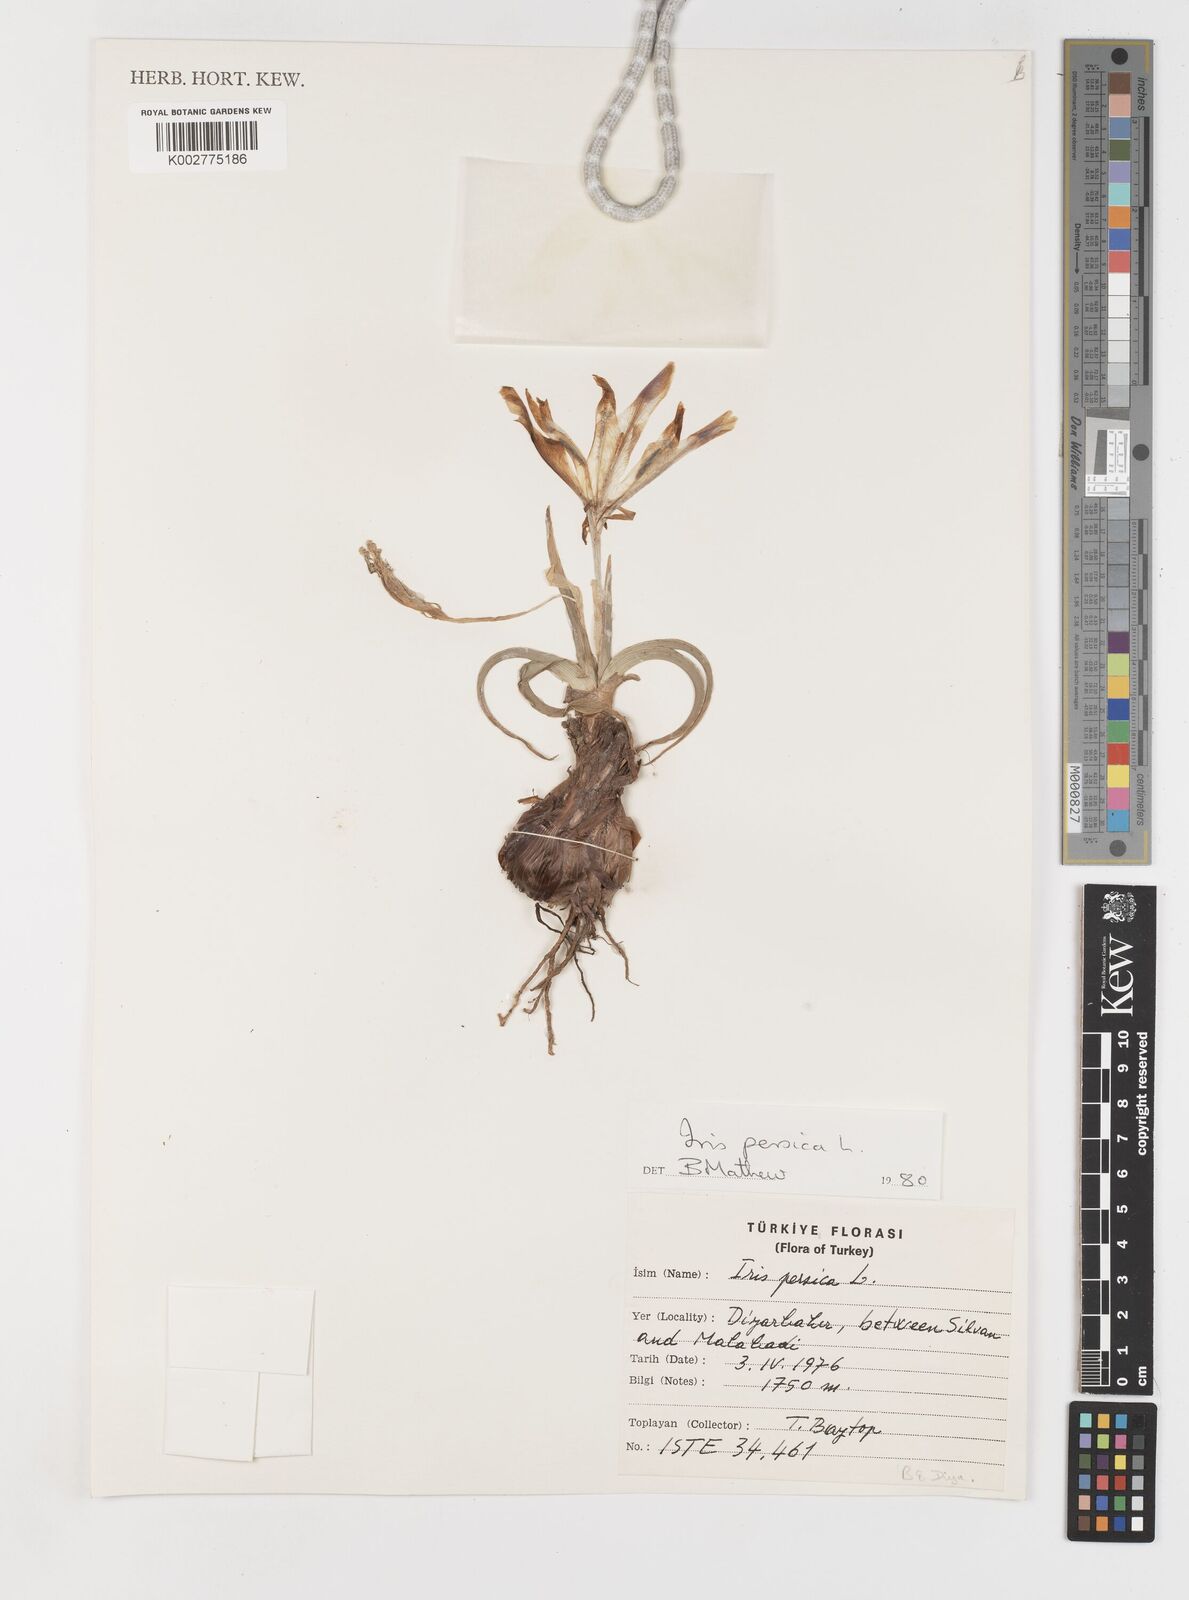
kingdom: Plantae
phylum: Tracheophyta
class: Liliopsida
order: Asparagales
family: Iridaceae
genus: Iris
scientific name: Iris persica
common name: Persian iris
